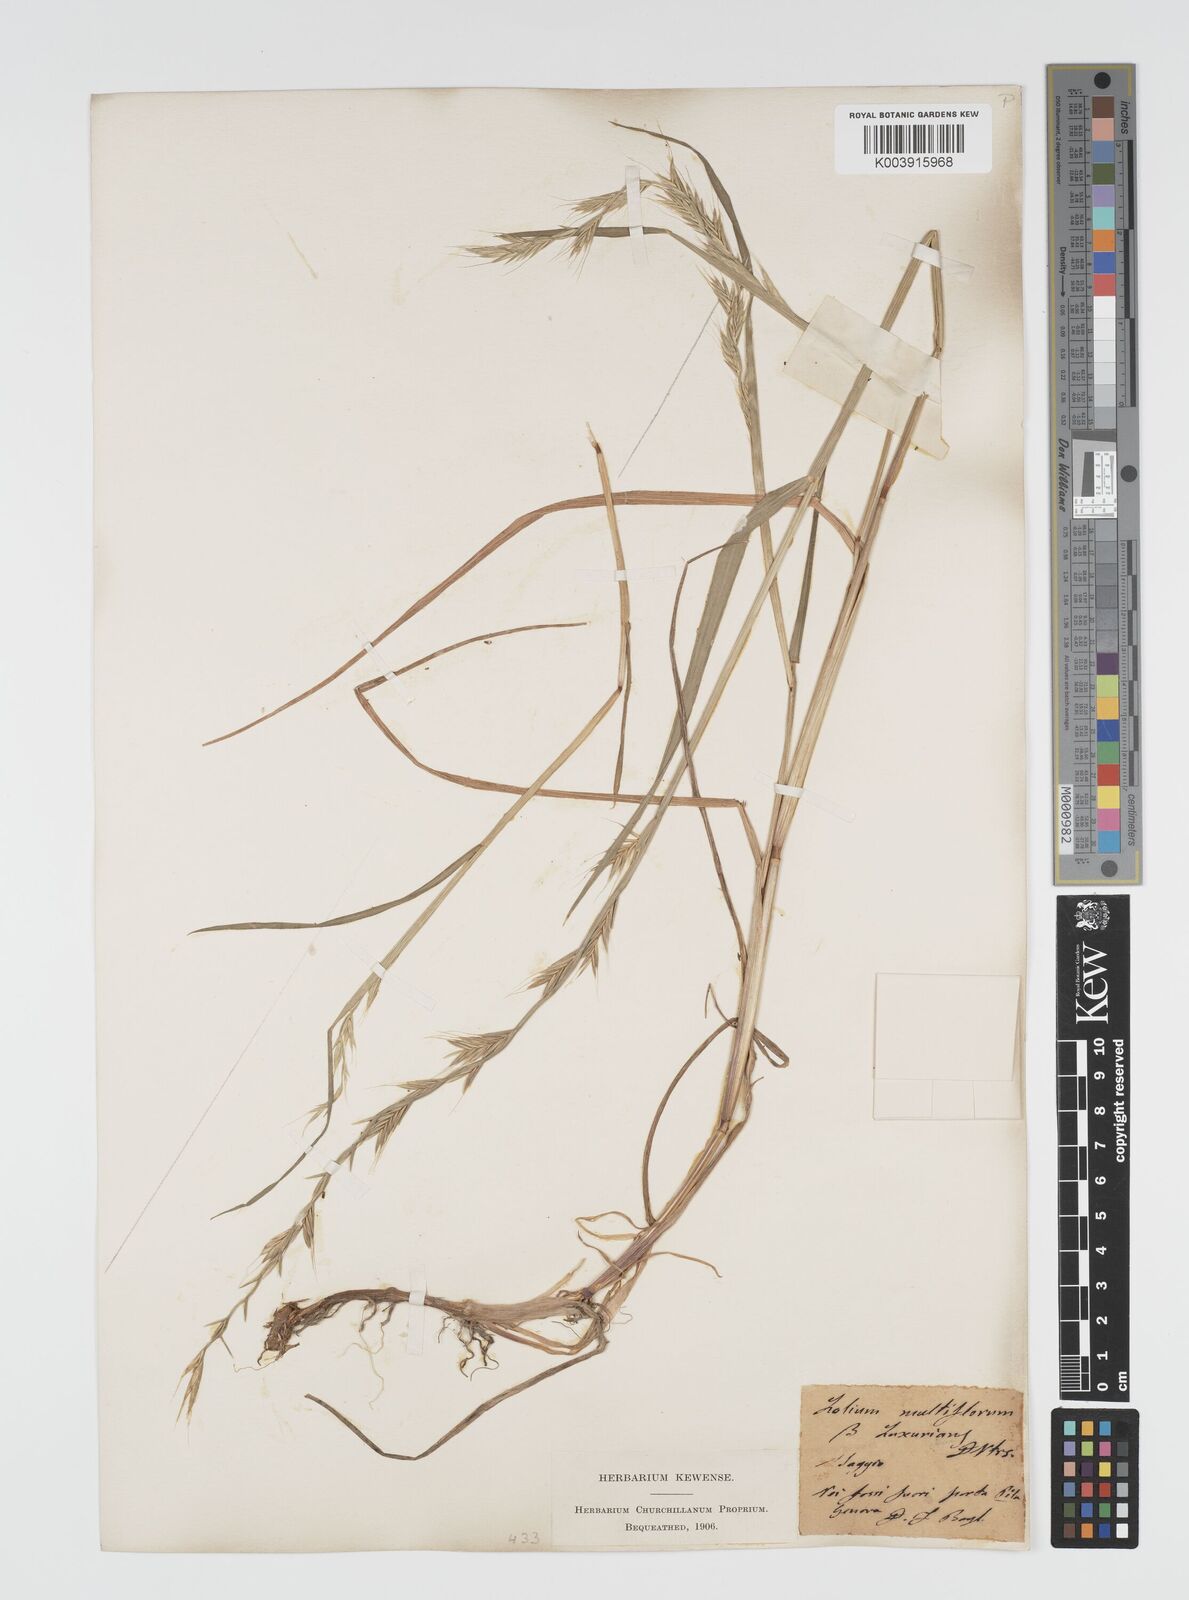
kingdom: Plantae
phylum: Tracheophyta
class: Liliopsida
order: Poales
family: Poaceae
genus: Lolium
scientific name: Lolium multiflorum
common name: Annual ryegrass
